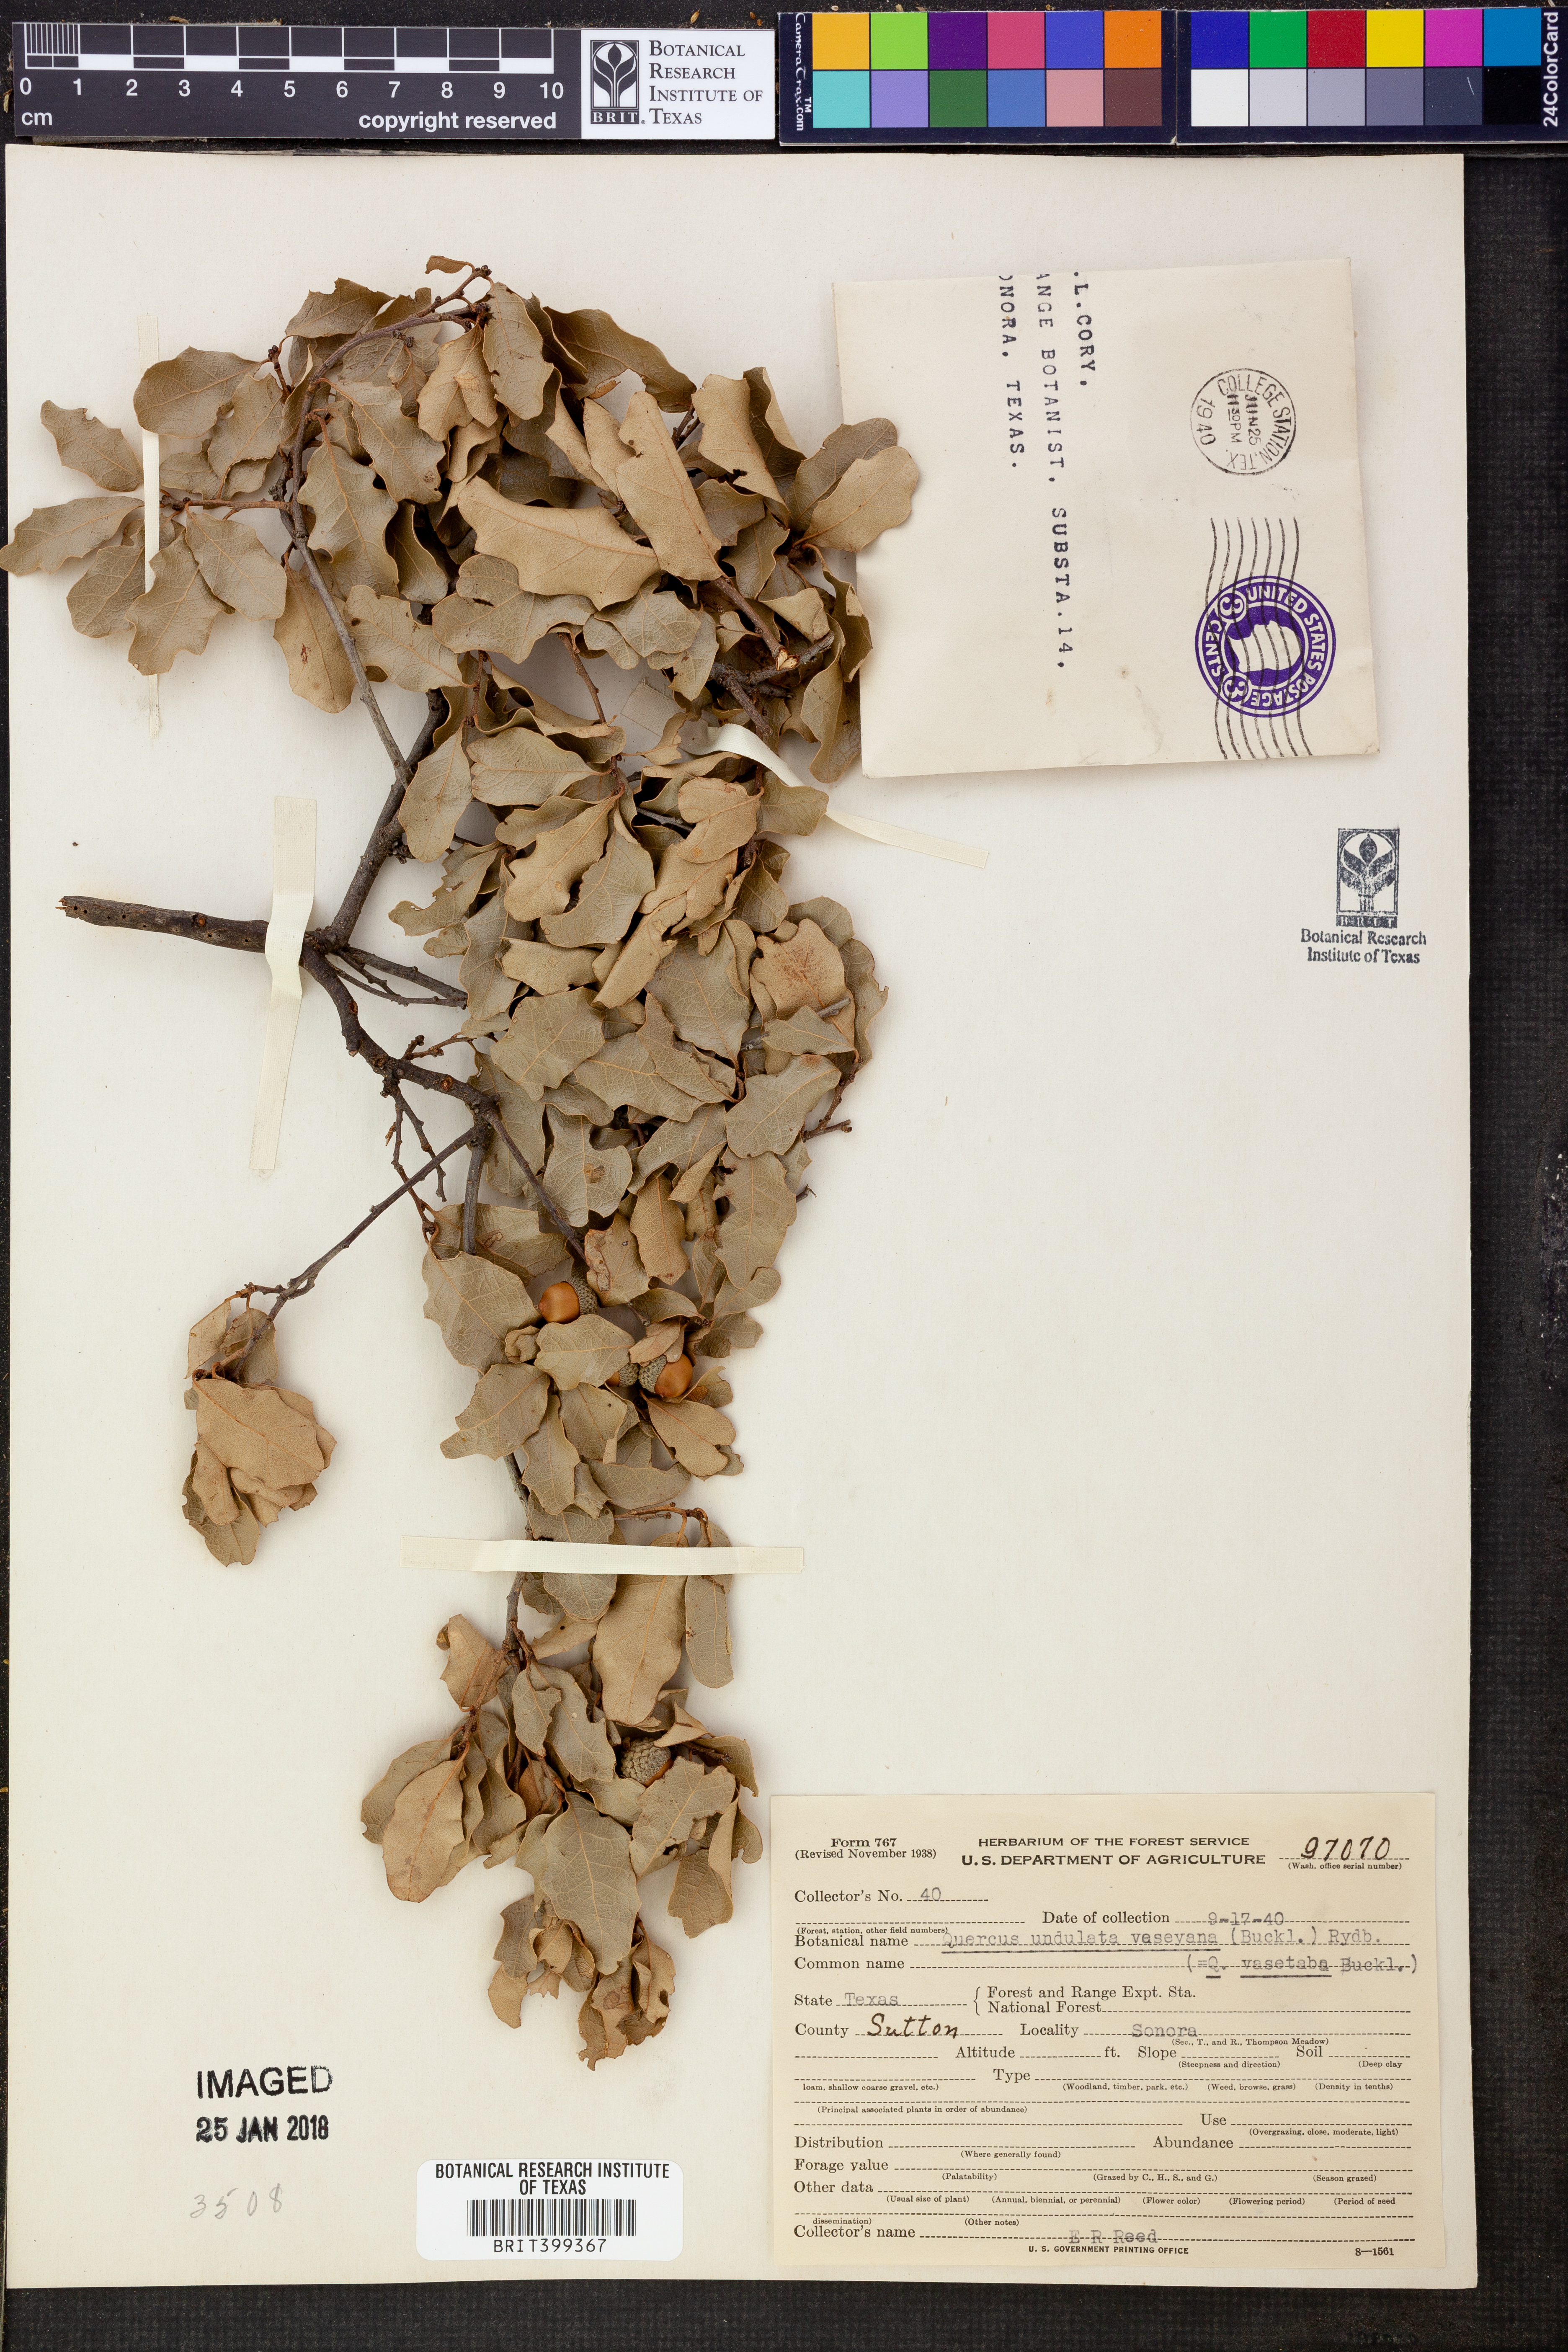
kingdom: Plantae
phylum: Tracheophyta
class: Magnoliopsida
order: Fagales
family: Fagaceae
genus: Quercus
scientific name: Quercus vaseyana
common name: Sandpaper oak
